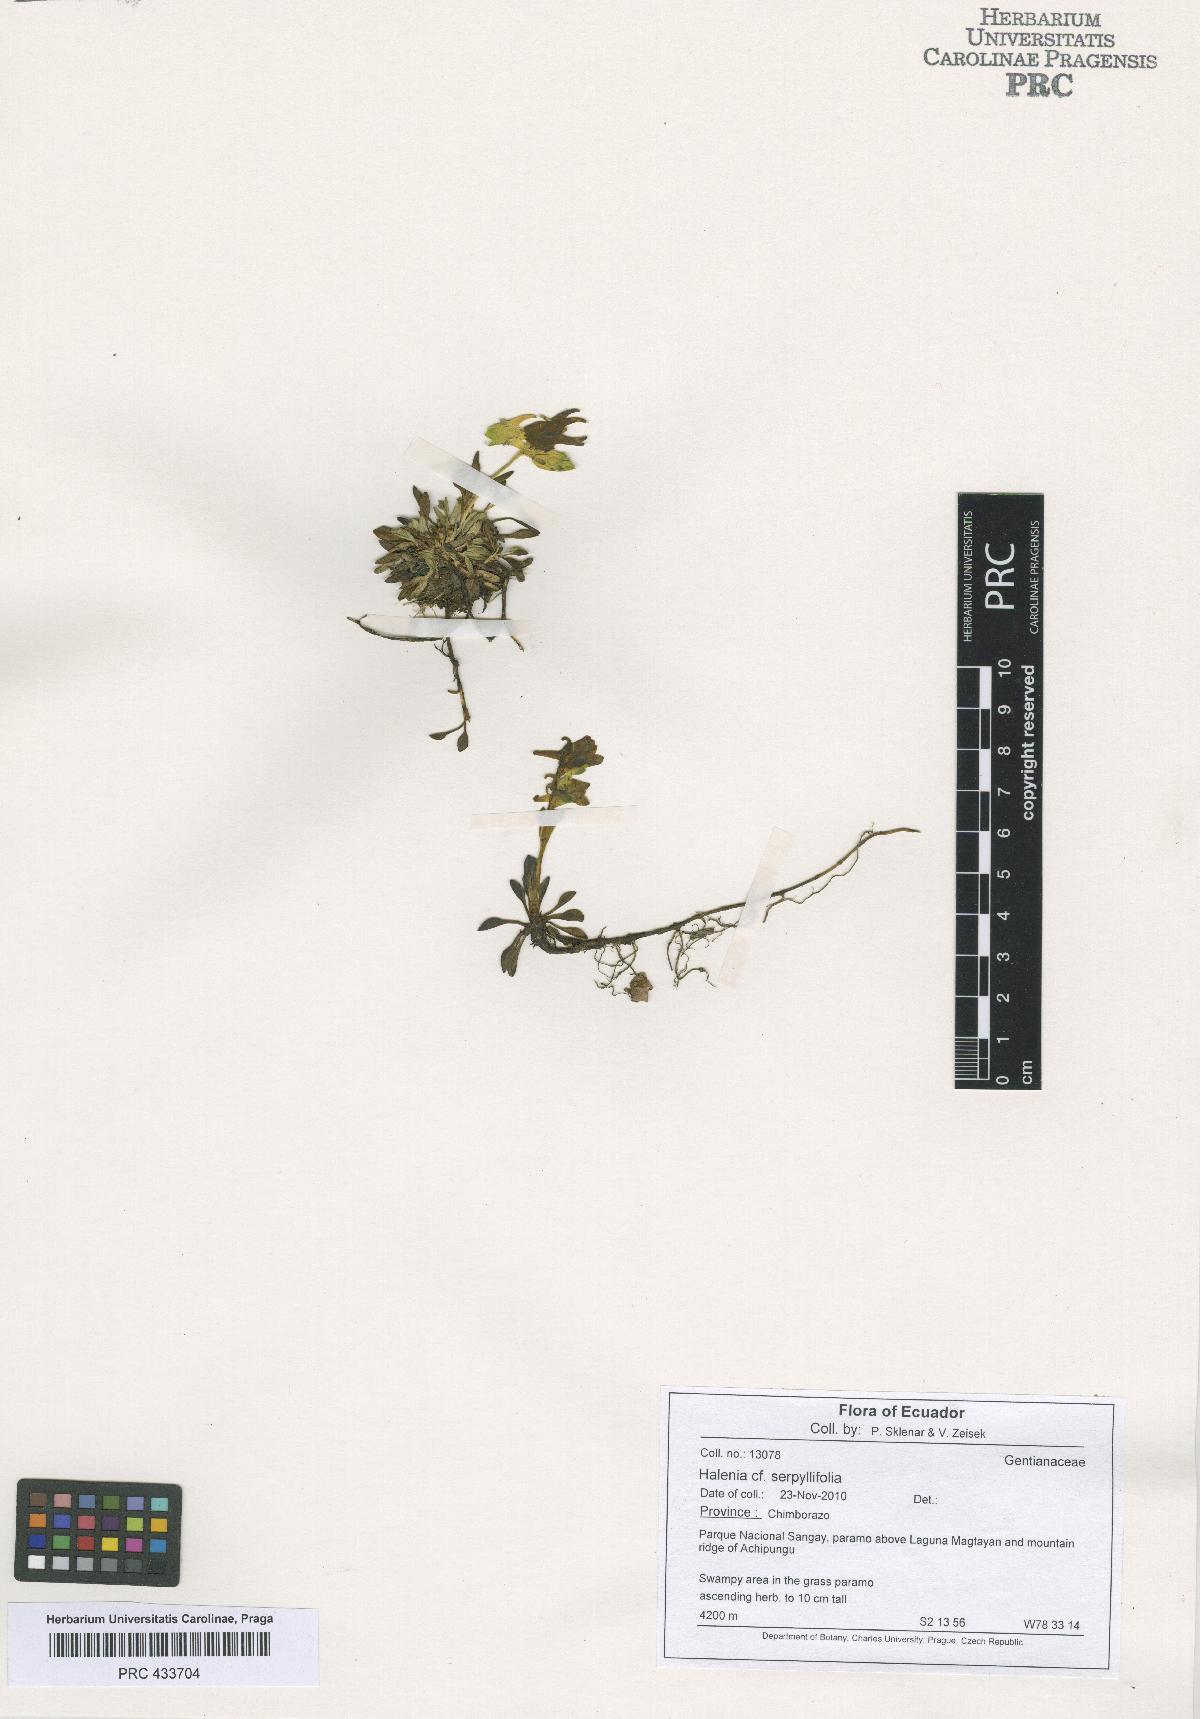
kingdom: Plantae
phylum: Tracheophyta
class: Magnoliopsida
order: Gentianales
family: Gentianaceae
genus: Halenia
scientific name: Halenia serpyllifolia
